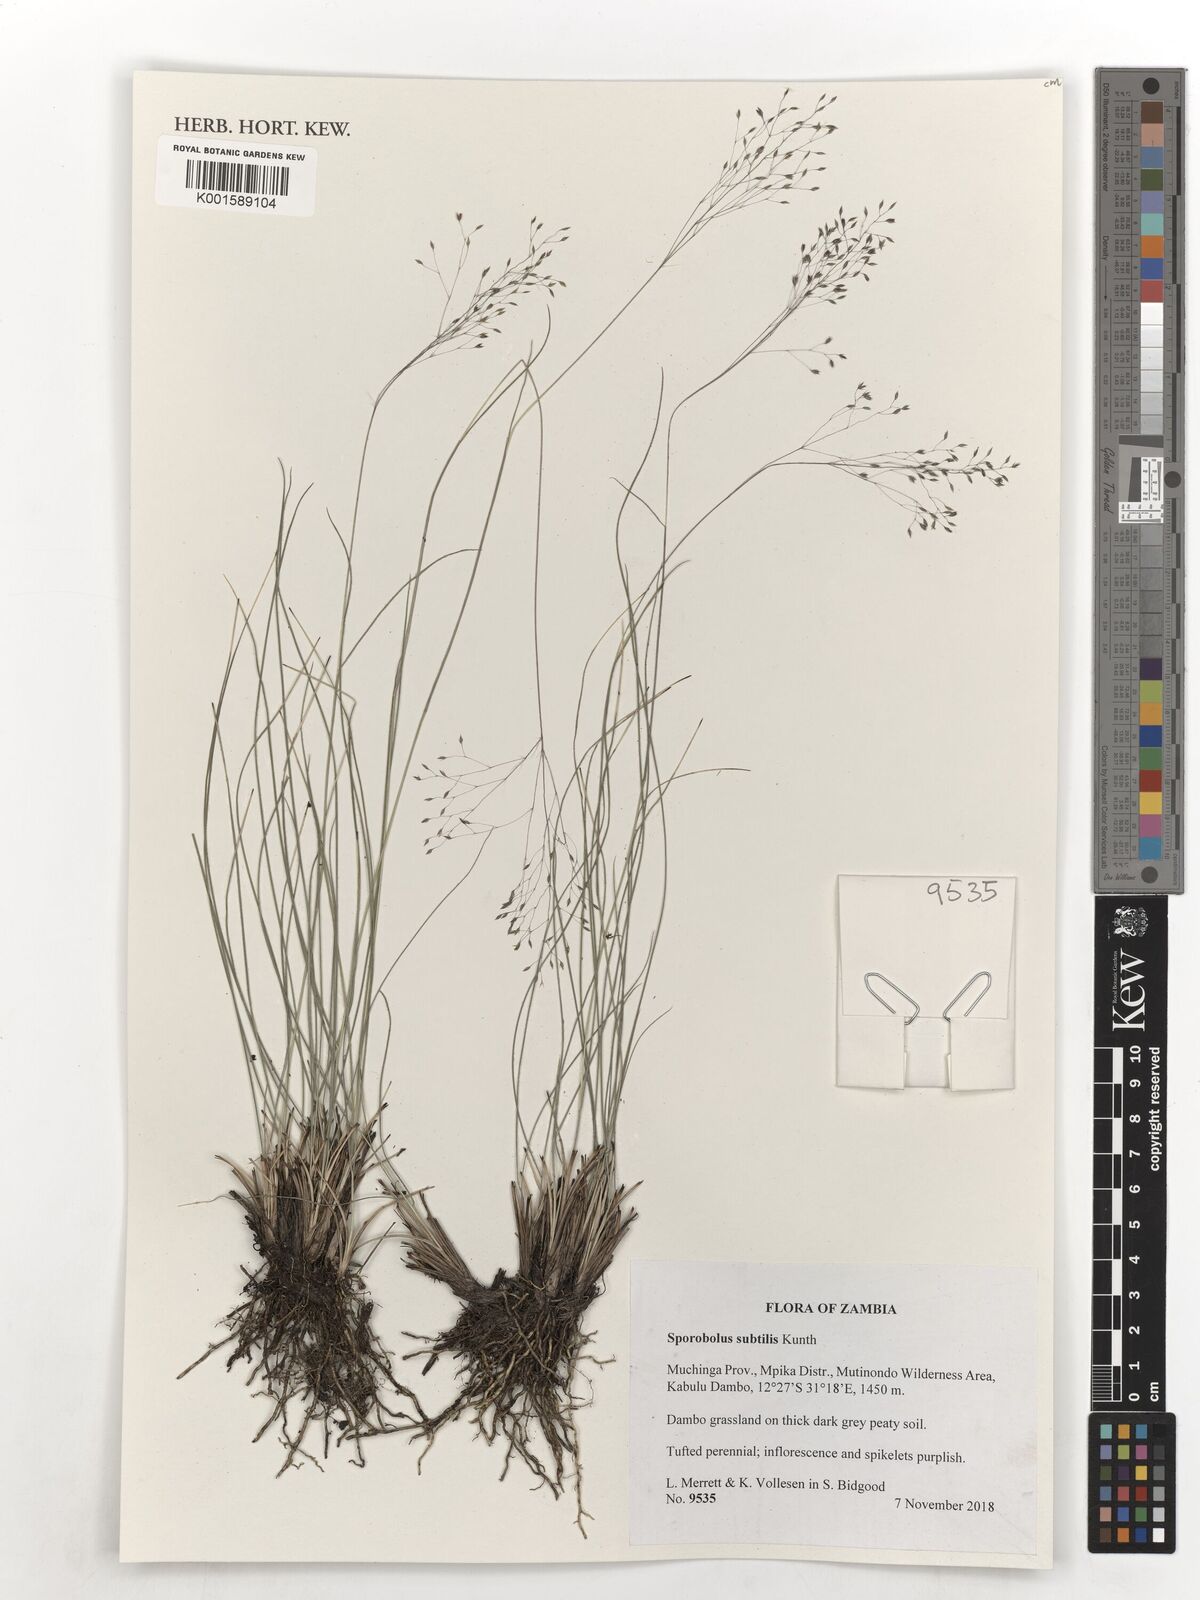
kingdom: Plantae
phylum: Tracheophyta
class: Liliopsida
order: Poales
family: Poaceae
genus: Sporobolus
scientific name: Sporobolus subtilis
